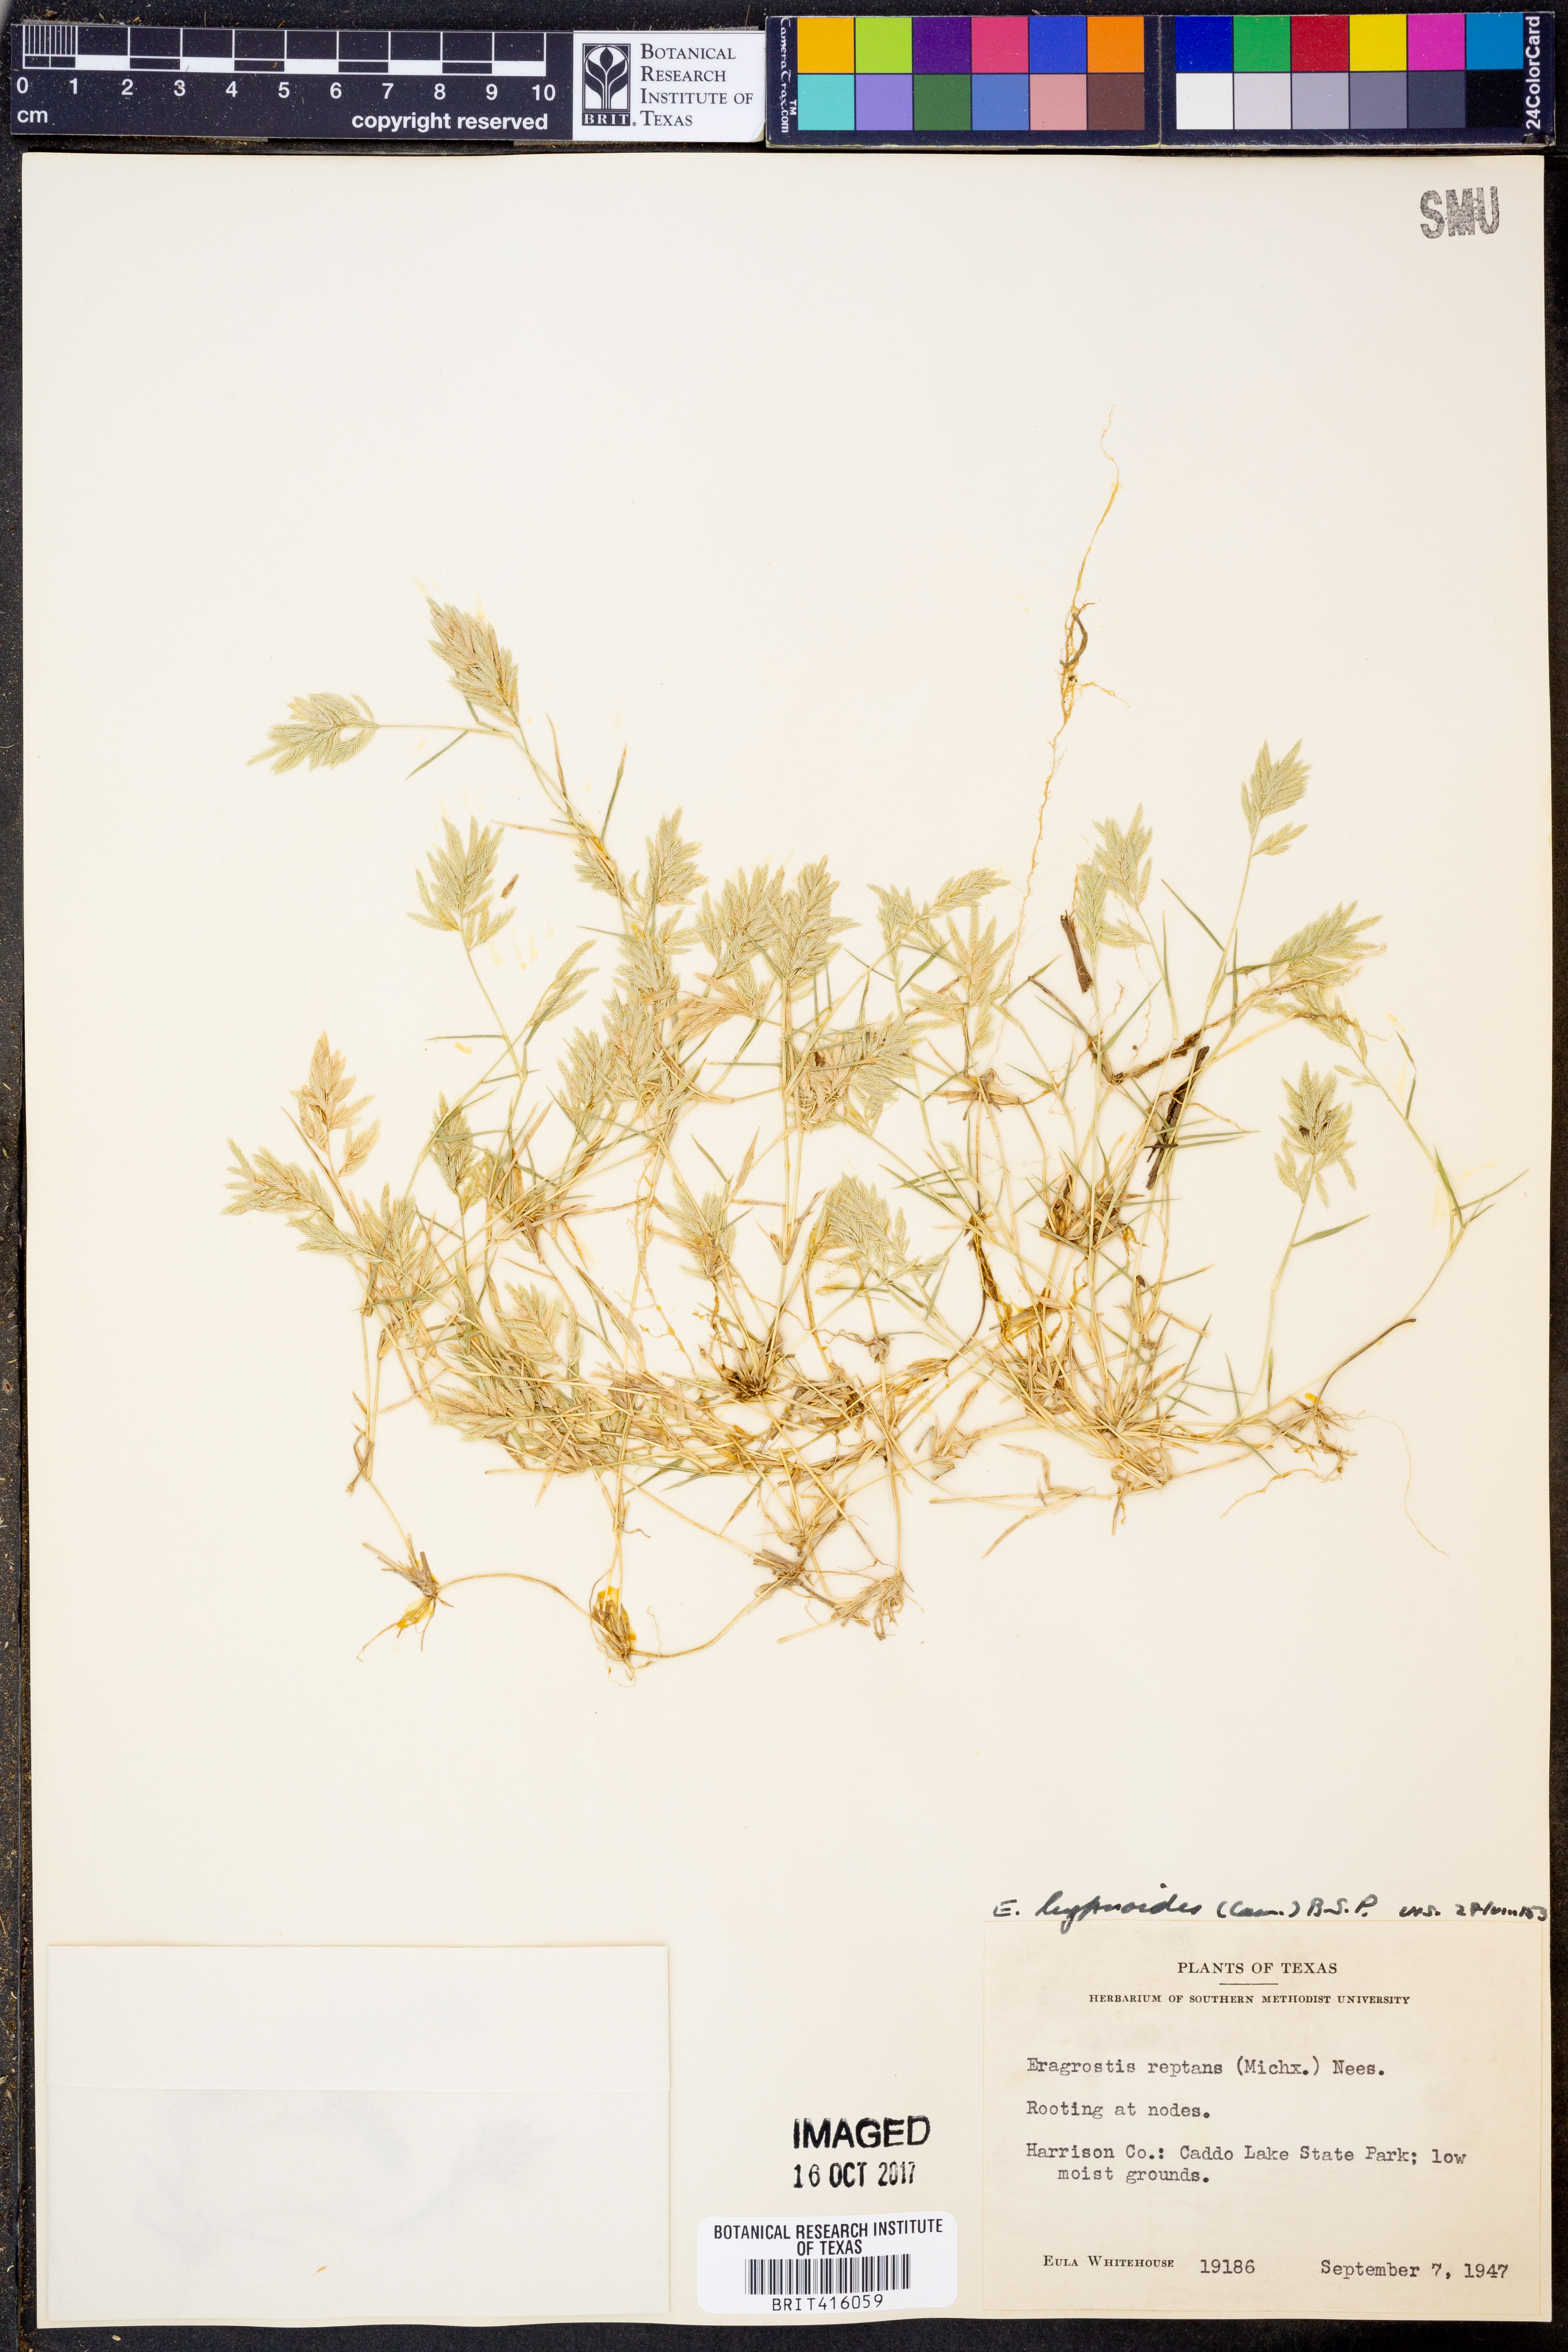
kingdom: Plantae
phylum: Tracheophyta
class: Liliopsida
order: Poales
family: Poaceae
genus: Eragrostis
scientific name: Eragrostis reptans
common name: Creeping love grass
